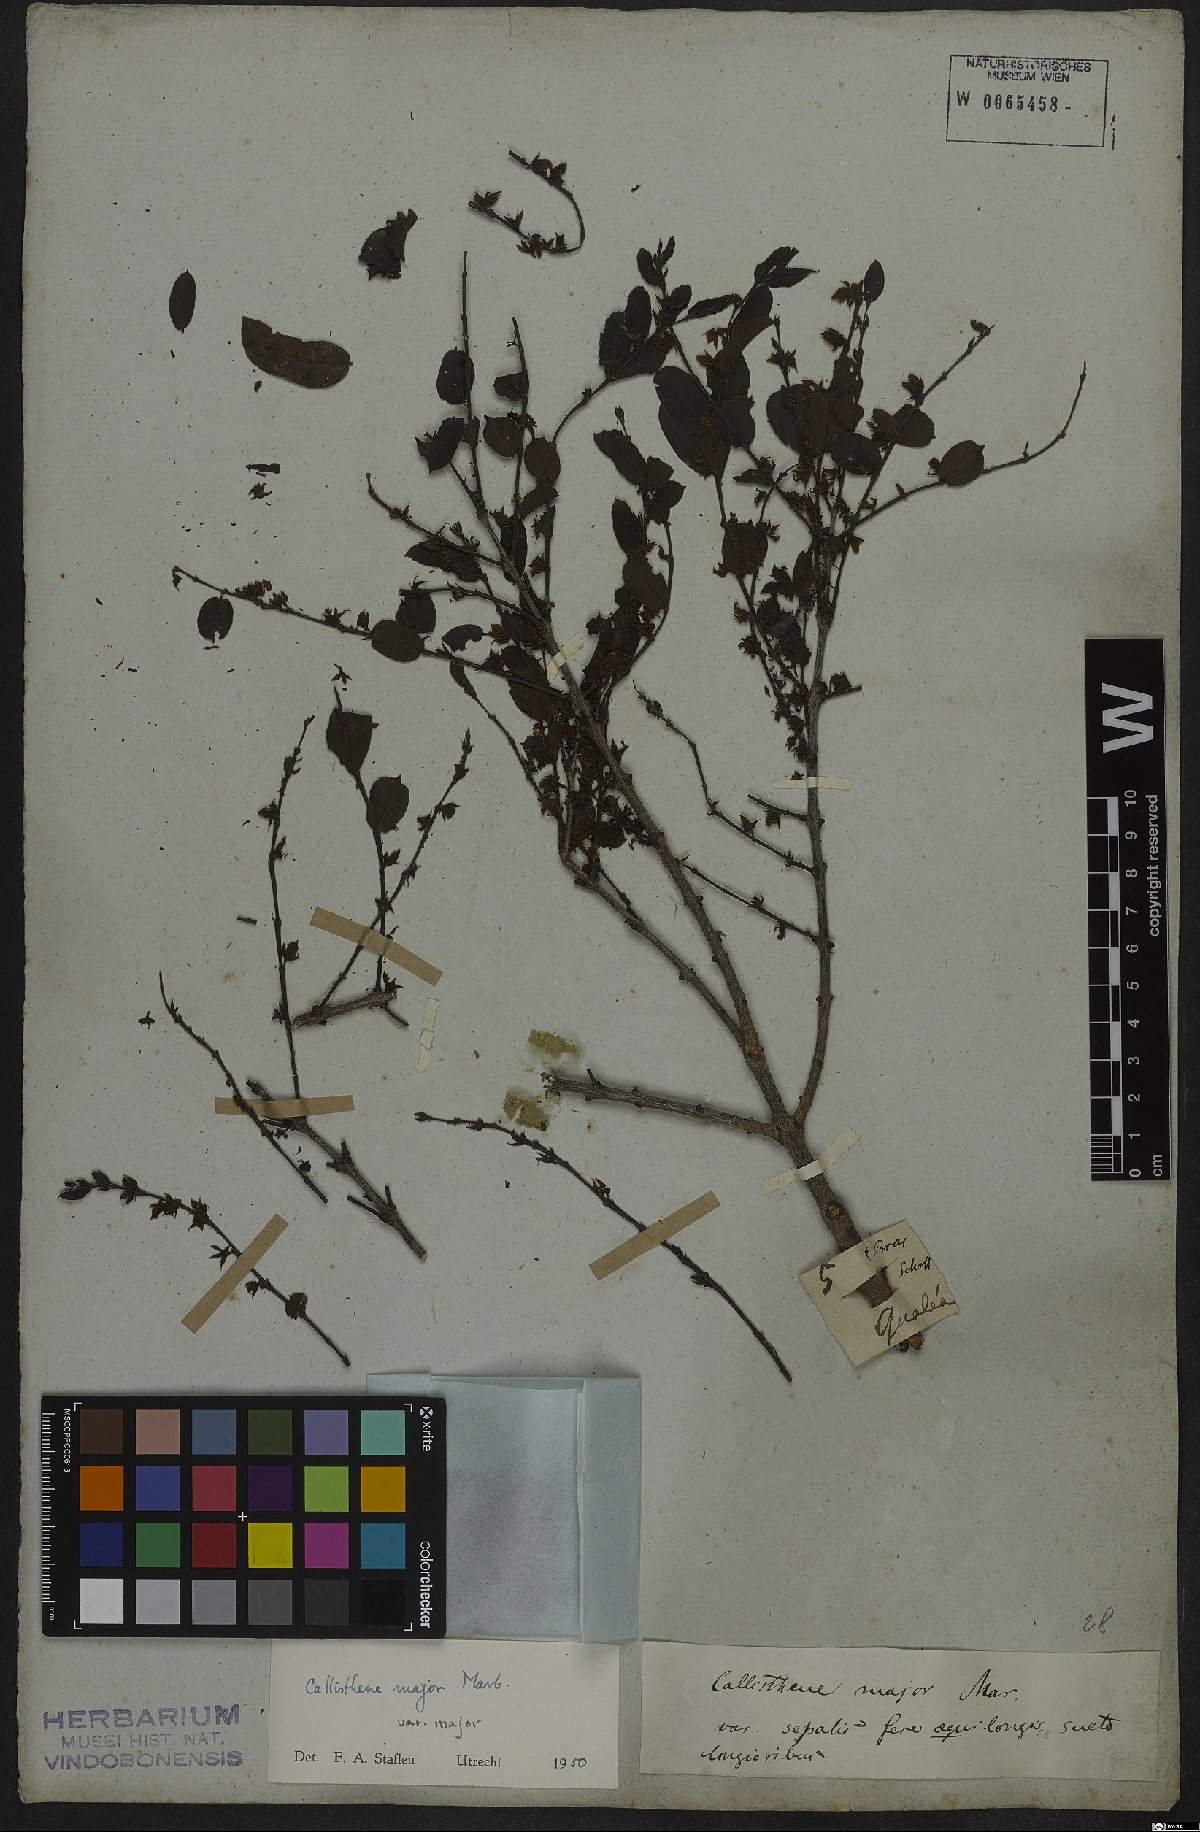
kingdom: Plantae
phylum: Tracheophyta
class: Magnoliopsida
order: Myrtales
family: Vochysiaceae
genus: Callisthene
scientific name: Callisthene major
